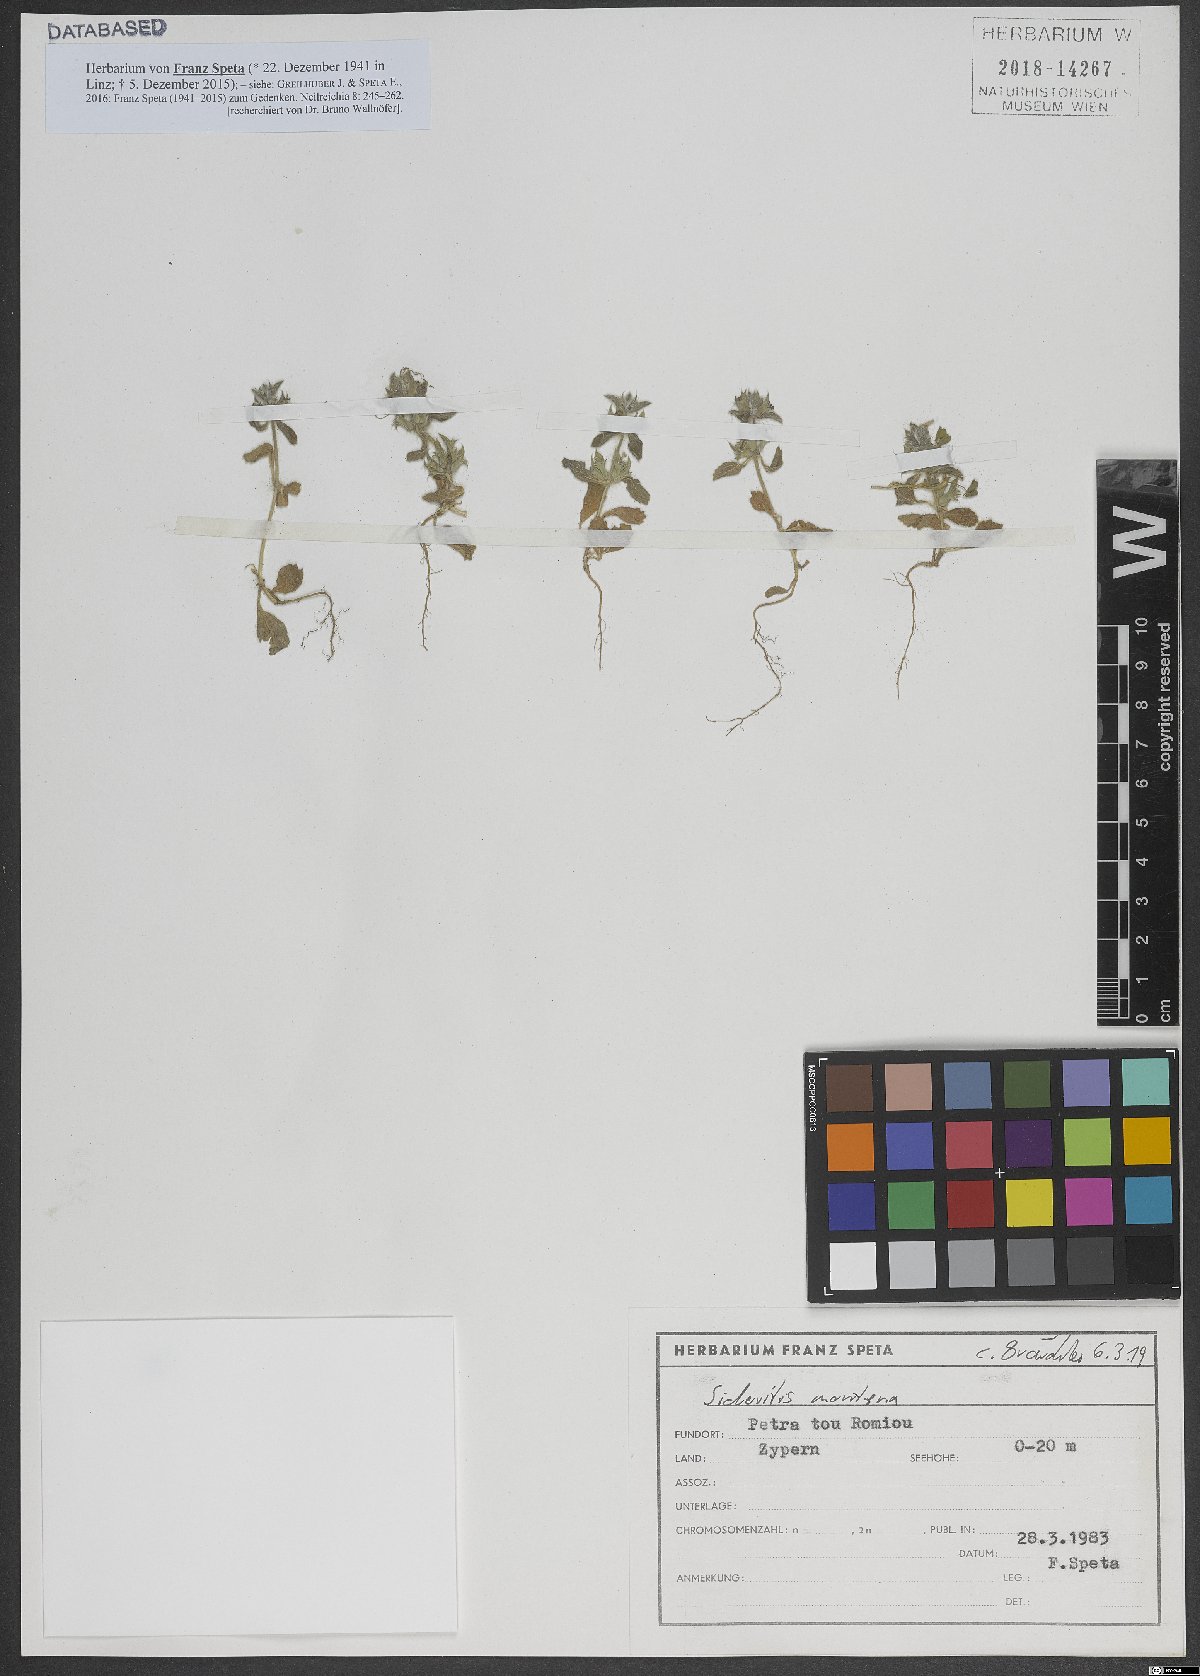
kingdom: Plantae
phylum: Tracheophyta
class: Magnoliopsida
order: Lamiales
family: Lamiaceae
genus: Sideritis
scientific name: Sideritis montana
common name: Mountain ironwort
